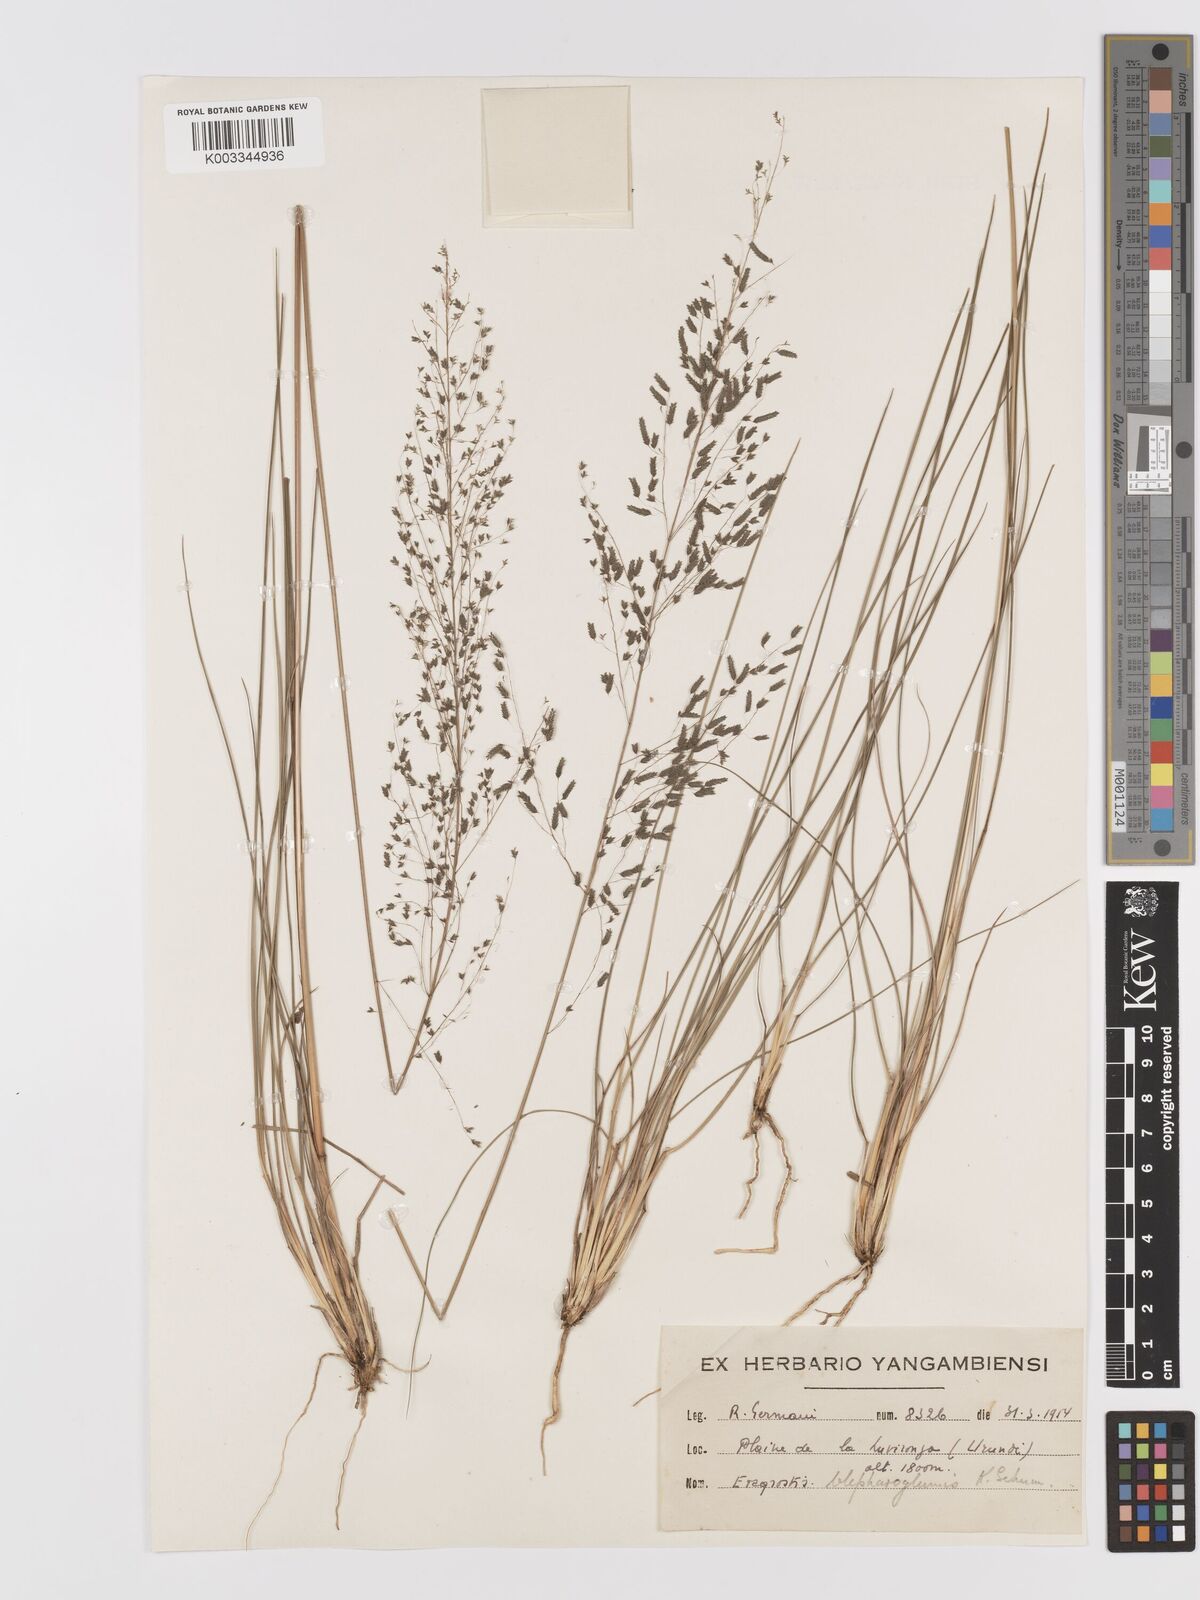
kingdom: Plantae
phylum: Tracheophyta
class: Liliopsida
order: Poales
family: Poaceae
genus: Eragrostis
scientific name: Eragrostis olivacea
